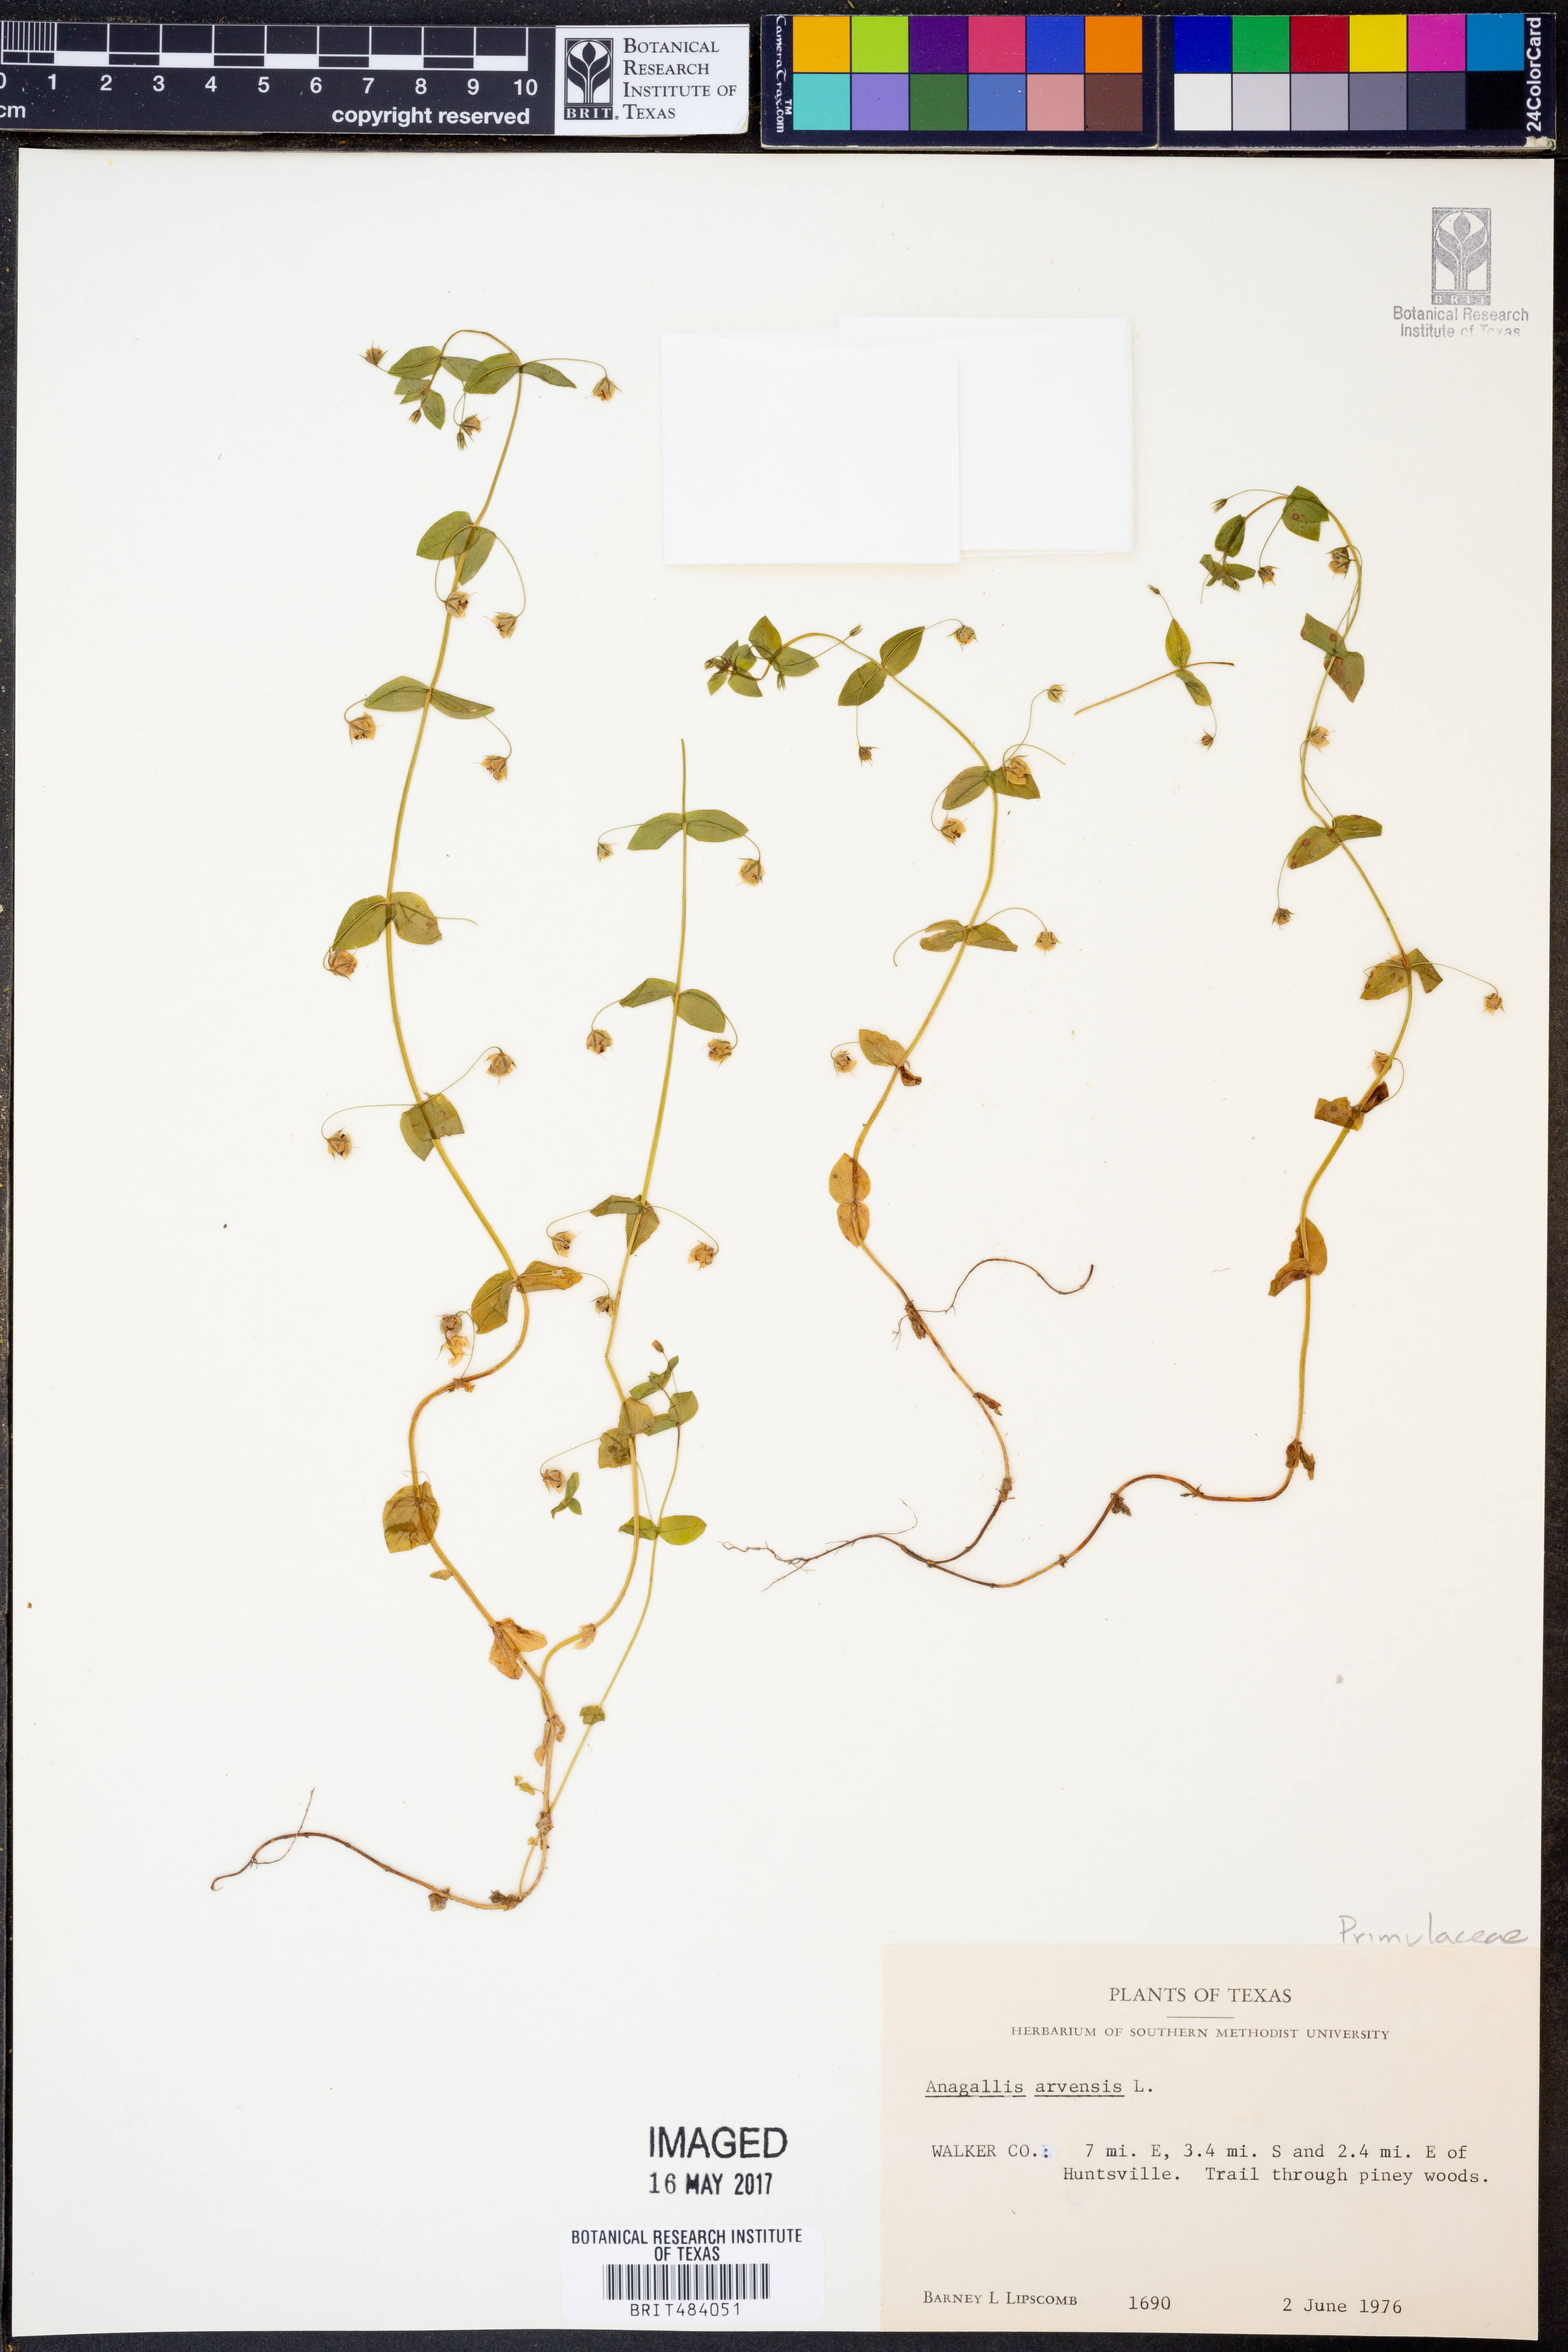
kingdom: Plantae
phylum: Tracheophyta
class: Magnoliopsida
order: Ericales
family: Primulaceae
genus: Lysimachia
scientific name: Lysimachia arvensis
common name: Scarlet pimpernel
